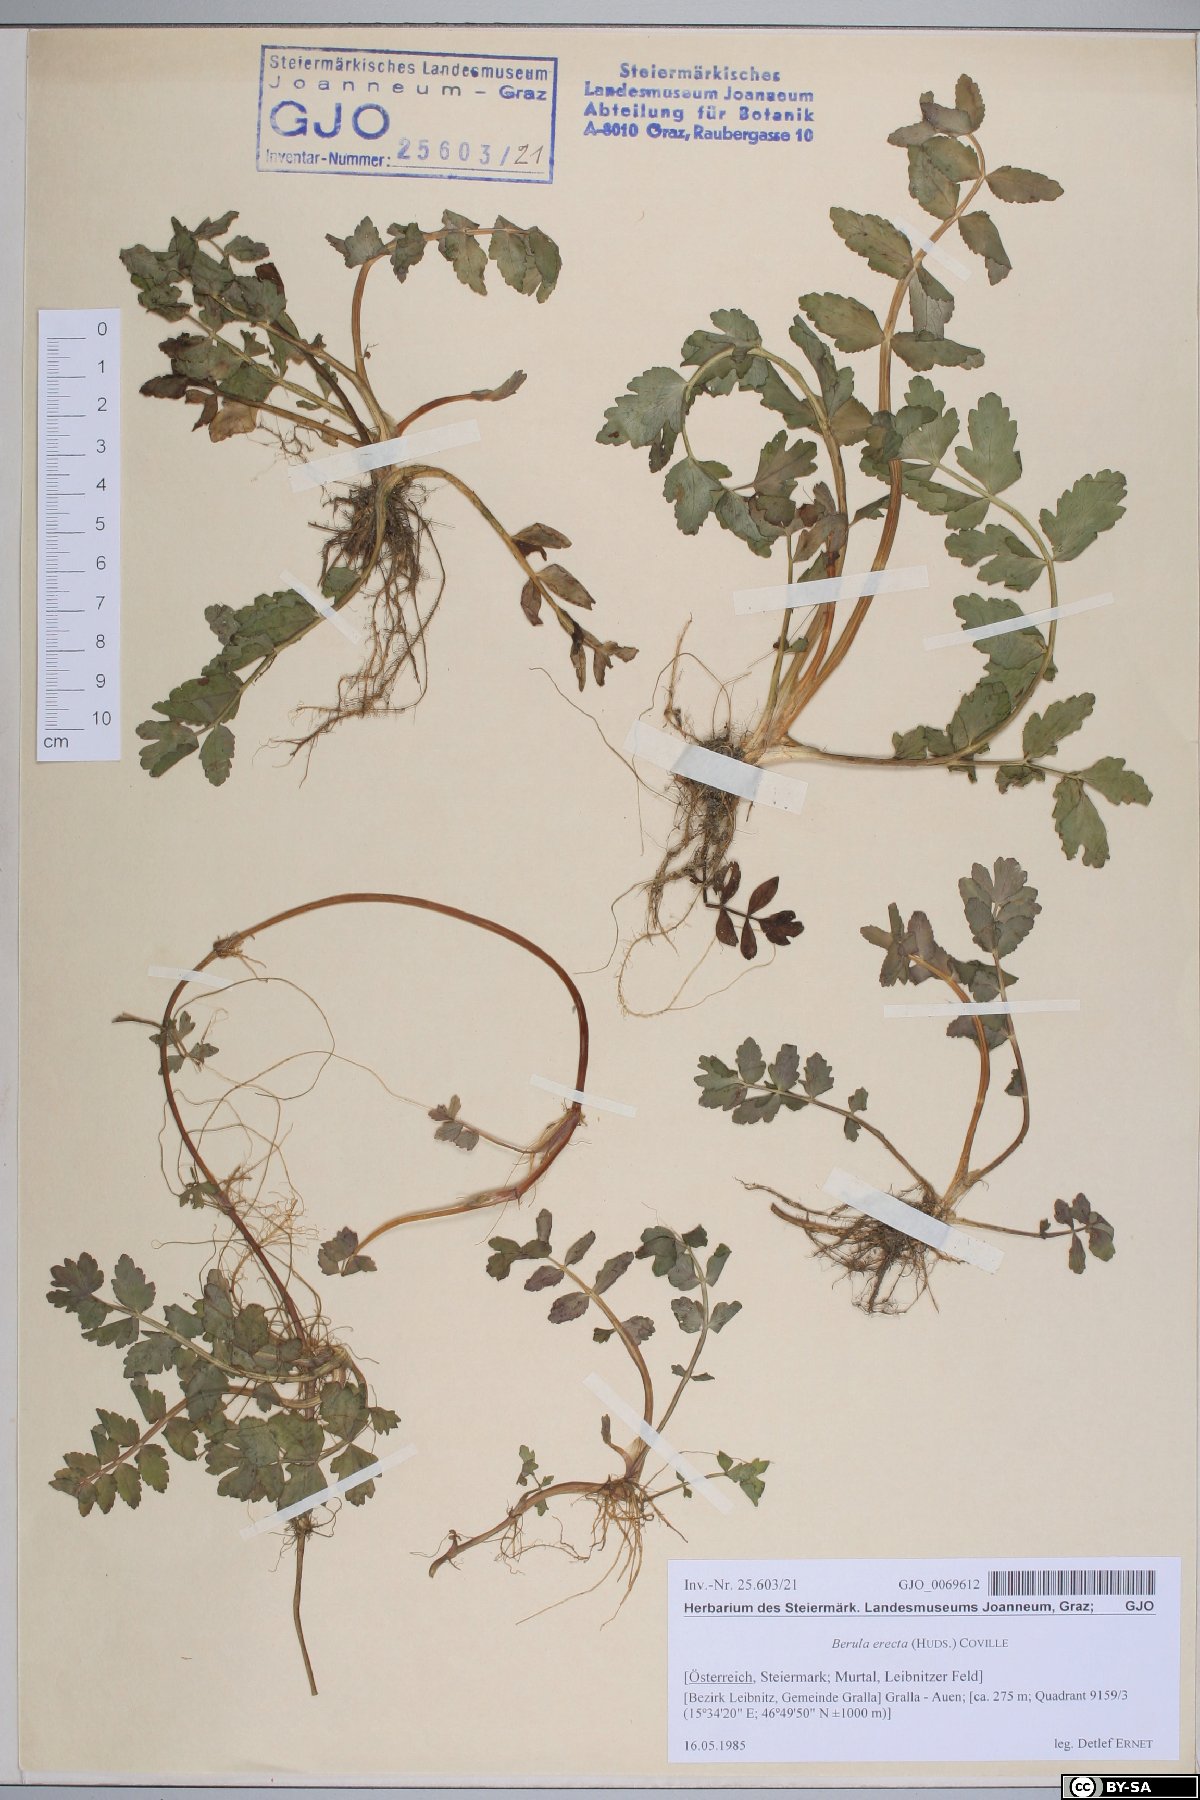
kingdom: Plantae
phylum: Tracheophyta
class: Magnoliopsida
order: Apiales
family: Apiaceae
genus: Berula
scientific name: Berula erecta
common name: Lesser water-parsnip
